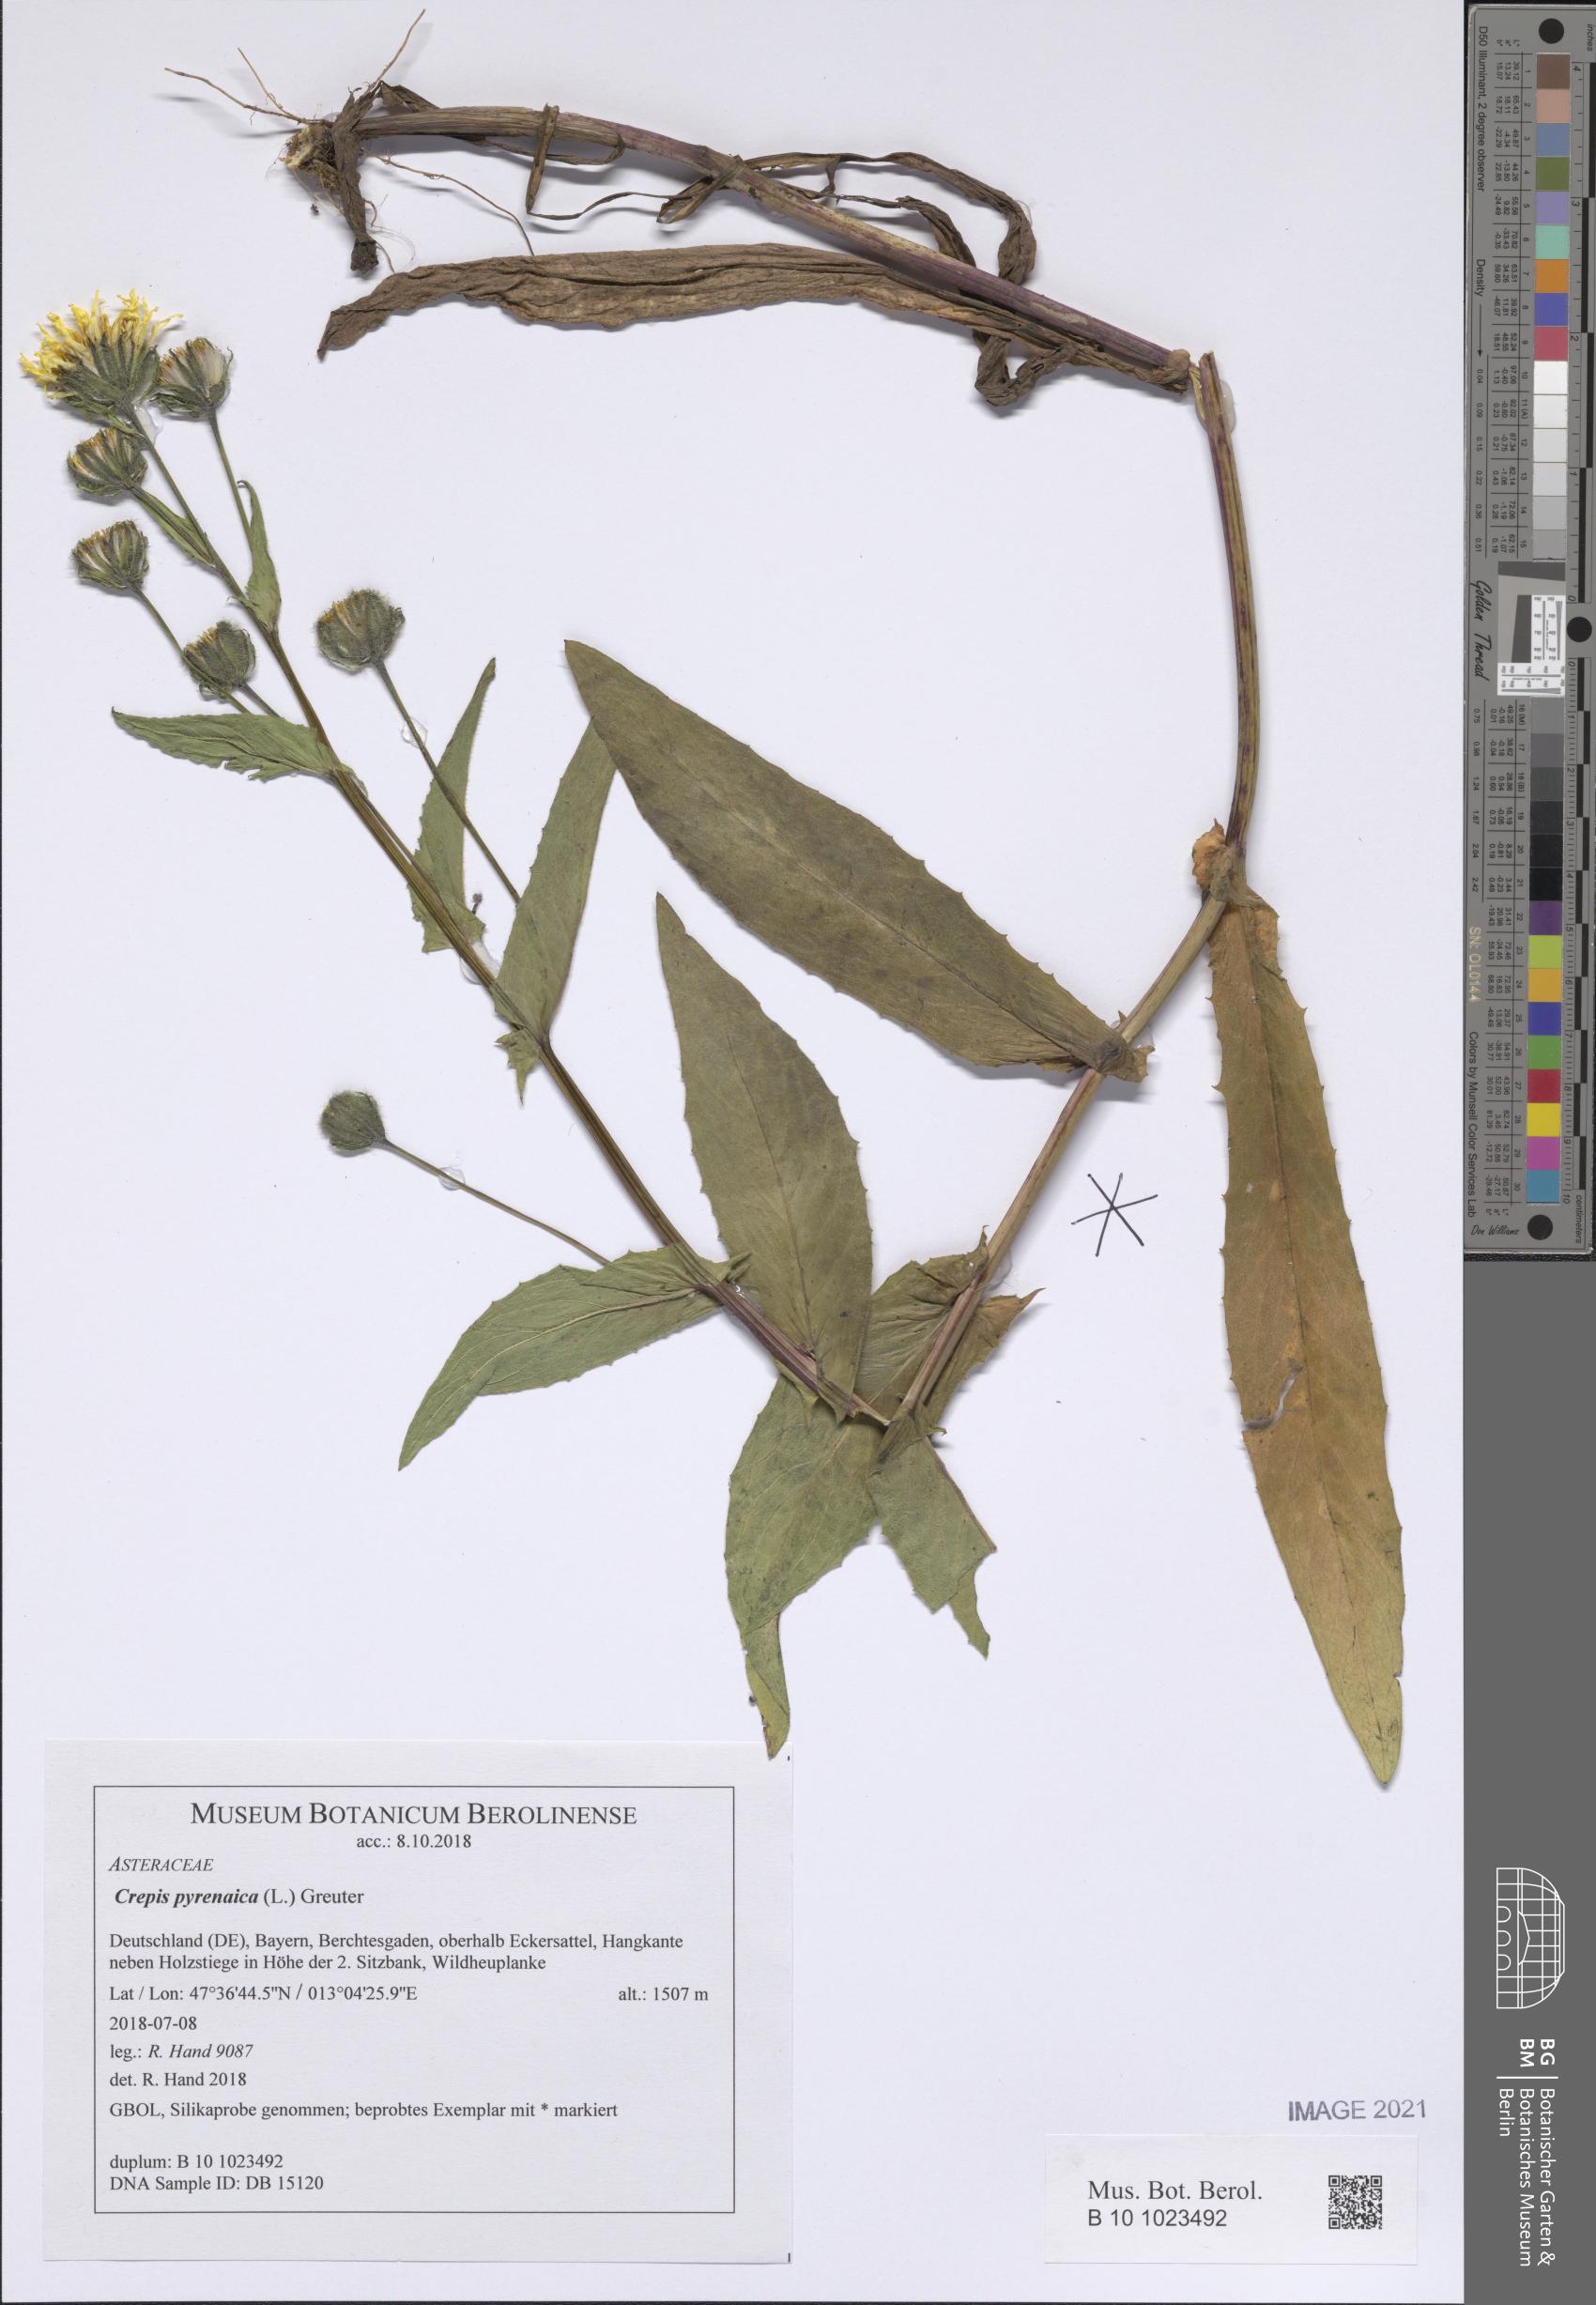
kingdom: Plantae
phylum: Tracheophyta
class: Magnoliopsida
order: Asterales
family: Asteraceae
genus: Crepis
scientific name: Crepis pyrenaica
